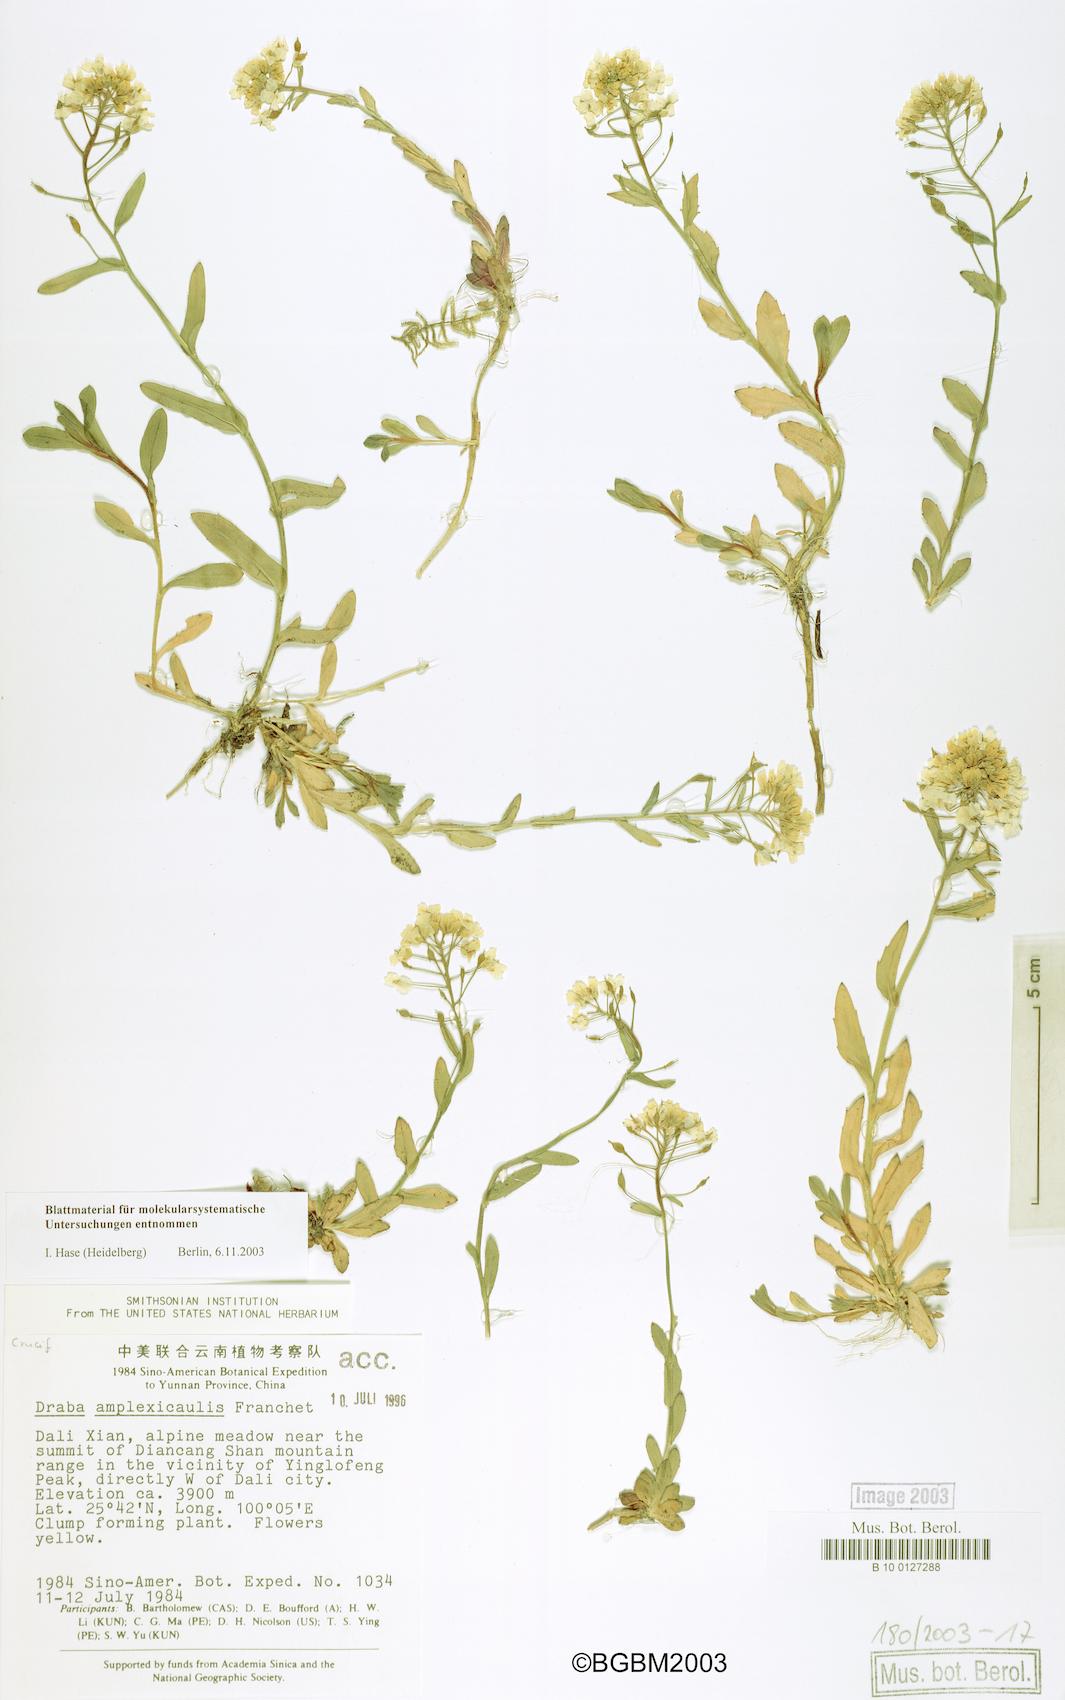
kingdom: Plantae
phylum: Tracheophyta
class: Magnoliopsida
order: Brassicales
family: Brassicaceae
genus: Draba
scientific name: Draba surculosa
